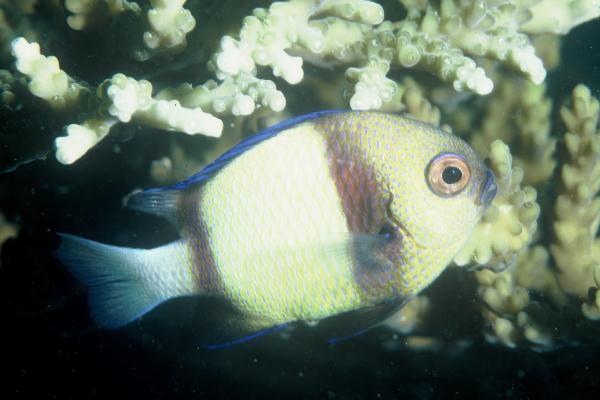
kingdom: Animalia
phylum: Chordata
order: Perciformes
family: Pomacentridae
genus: Dascyllus
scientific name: Dascyllus carneus
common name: Indian dascyllus
